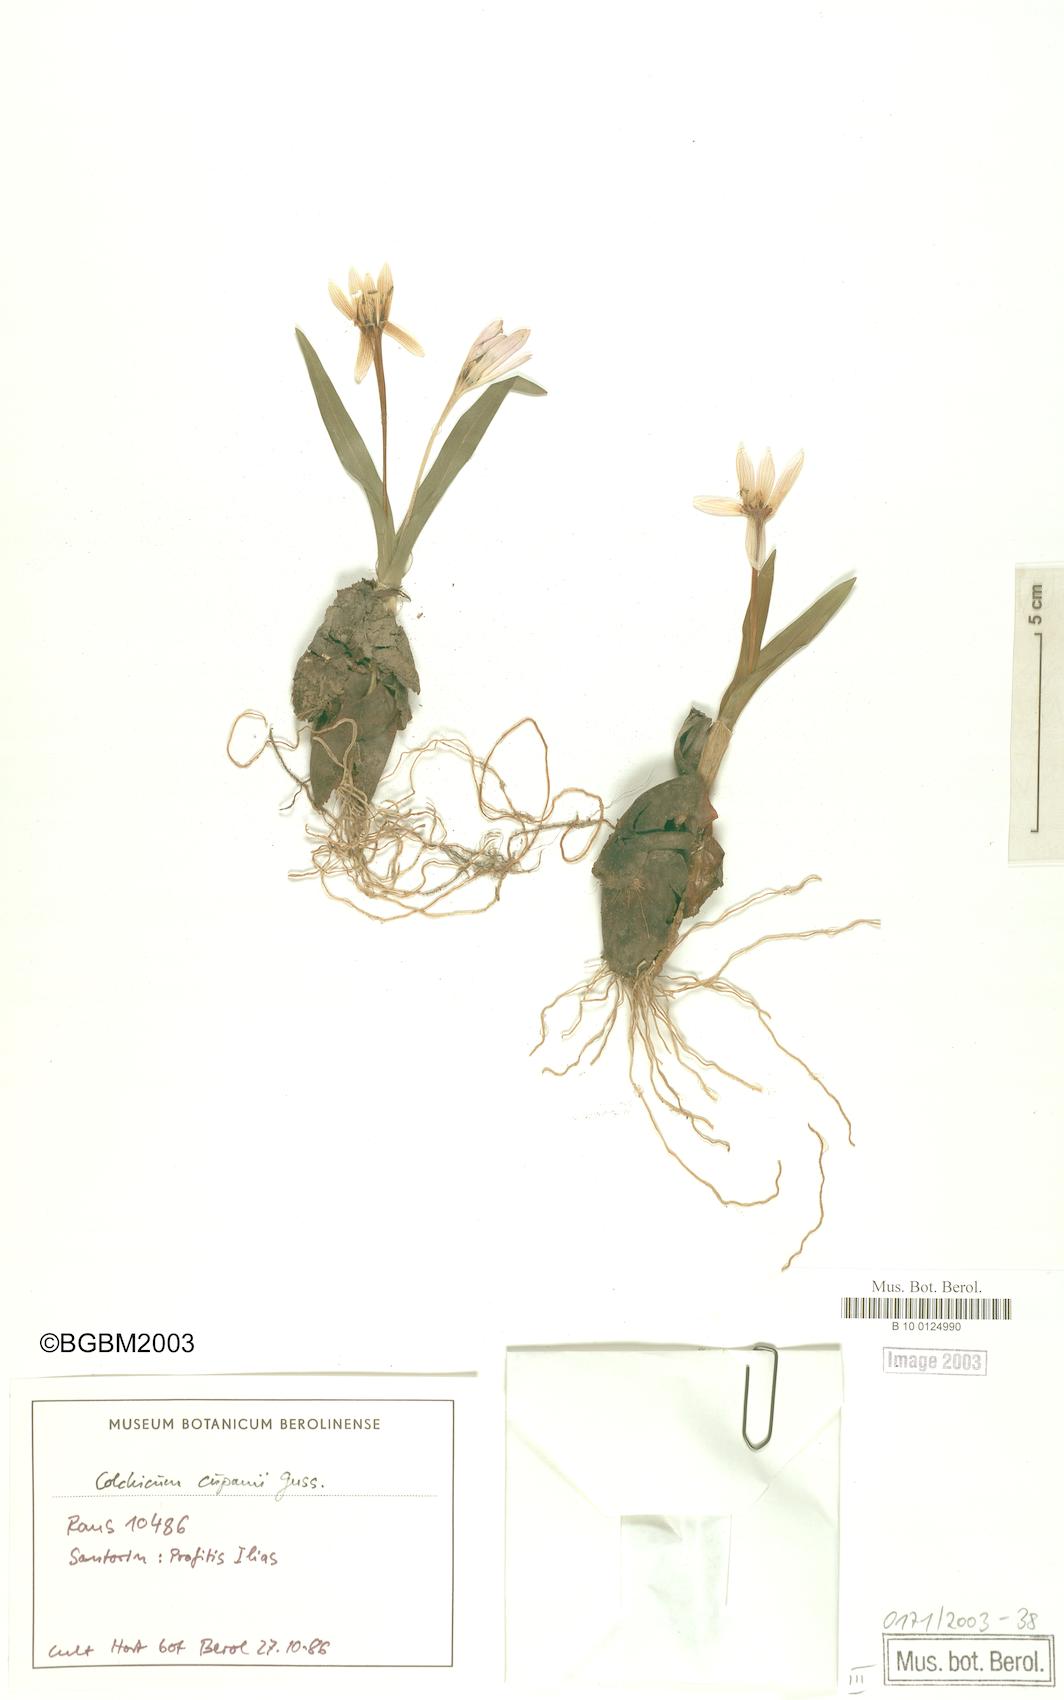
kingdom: Plantae
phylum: Tracheophyta
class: Liliopsida
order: Liliales
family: Colchicaceae
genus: Colchicum
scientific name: Colchicum cupanii
